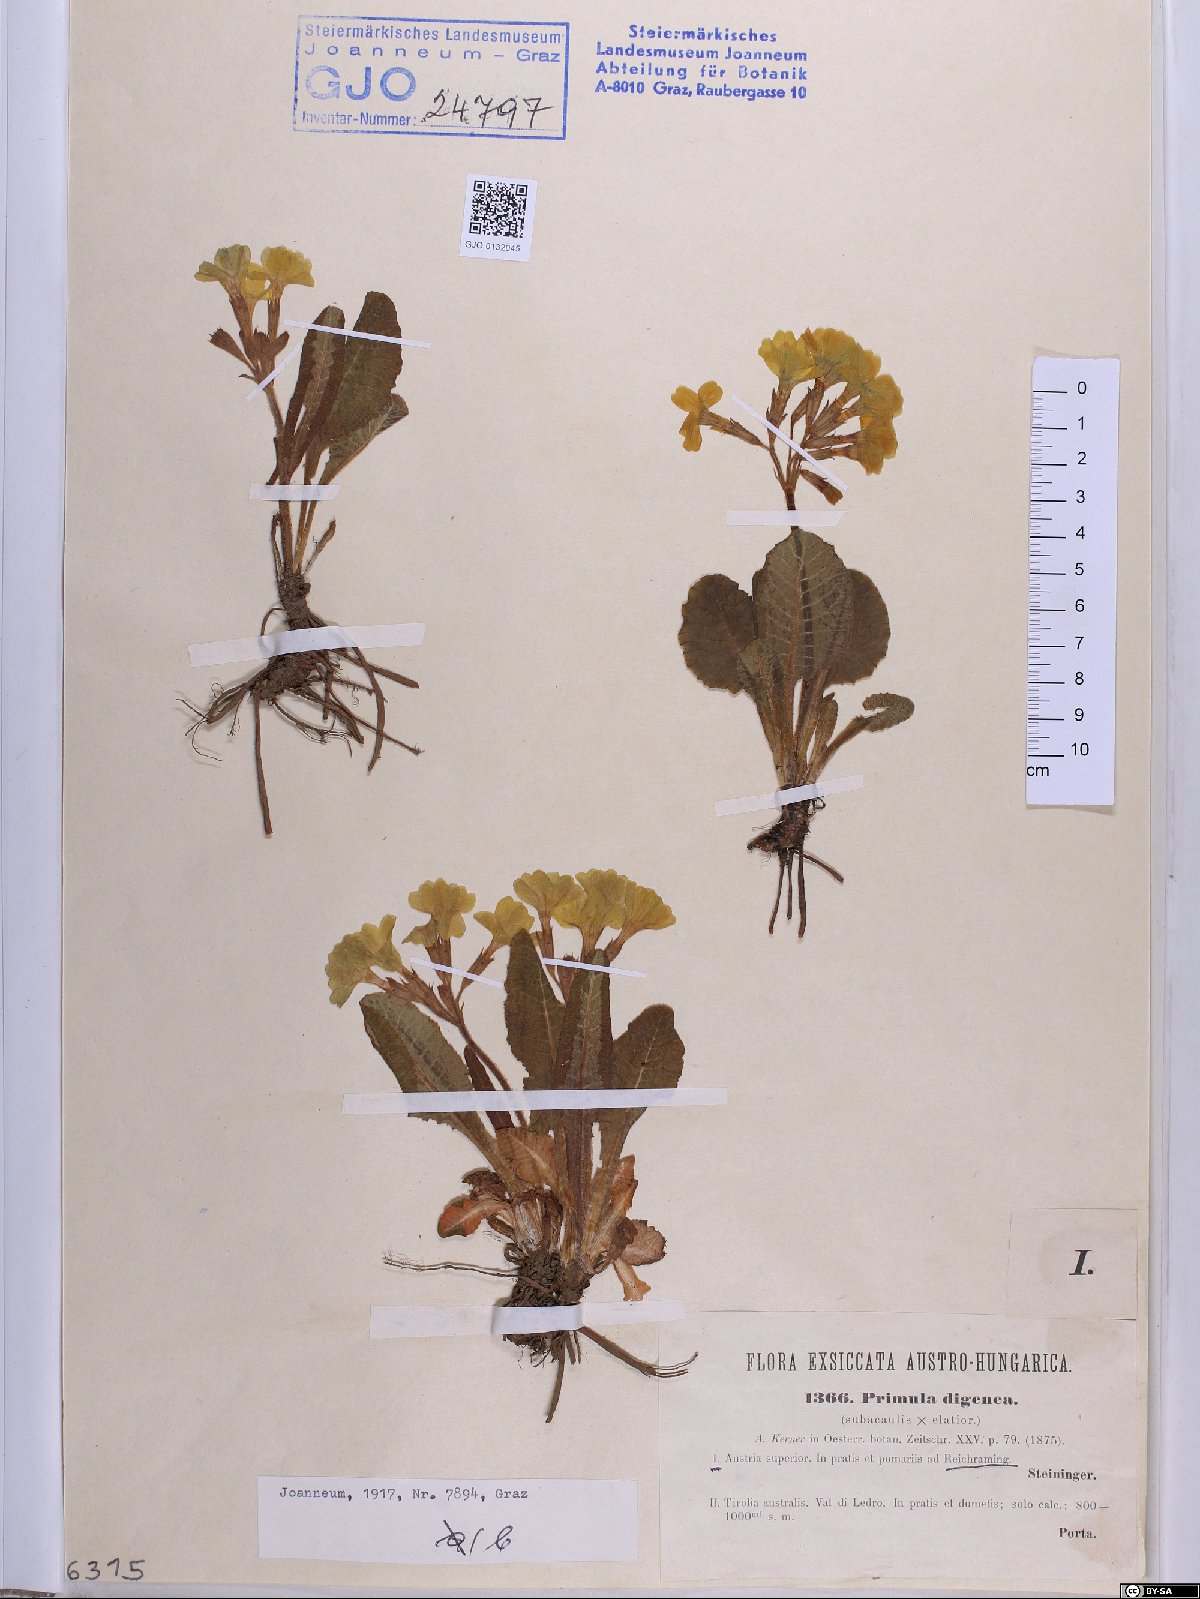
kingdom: Plantae
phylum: Tracheophyta
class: Magnoliopsida
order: Ericales
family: Primulaceae
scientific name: Primulaceae
